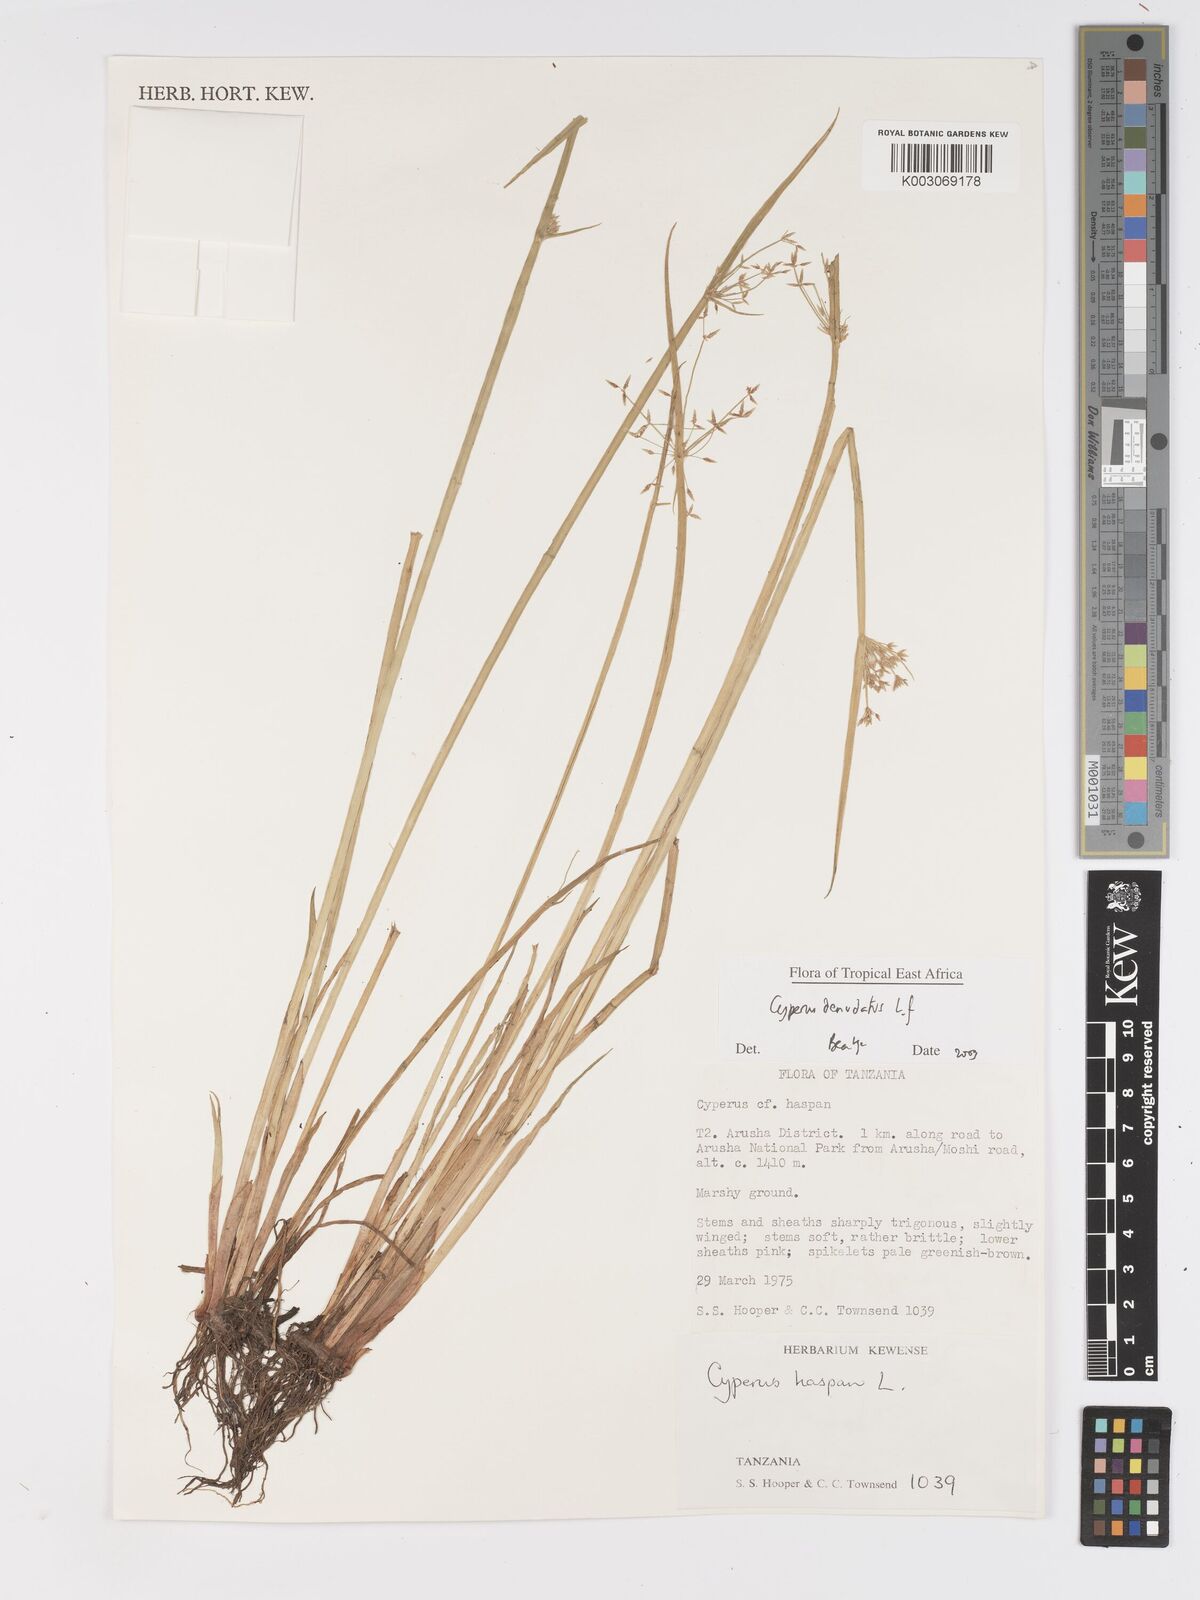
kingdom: Plantae
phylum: Tracheophyta
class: Liliopsida
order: Poales
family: Cyperaceae
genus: Cyperus
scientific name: Cyperus denudatus
